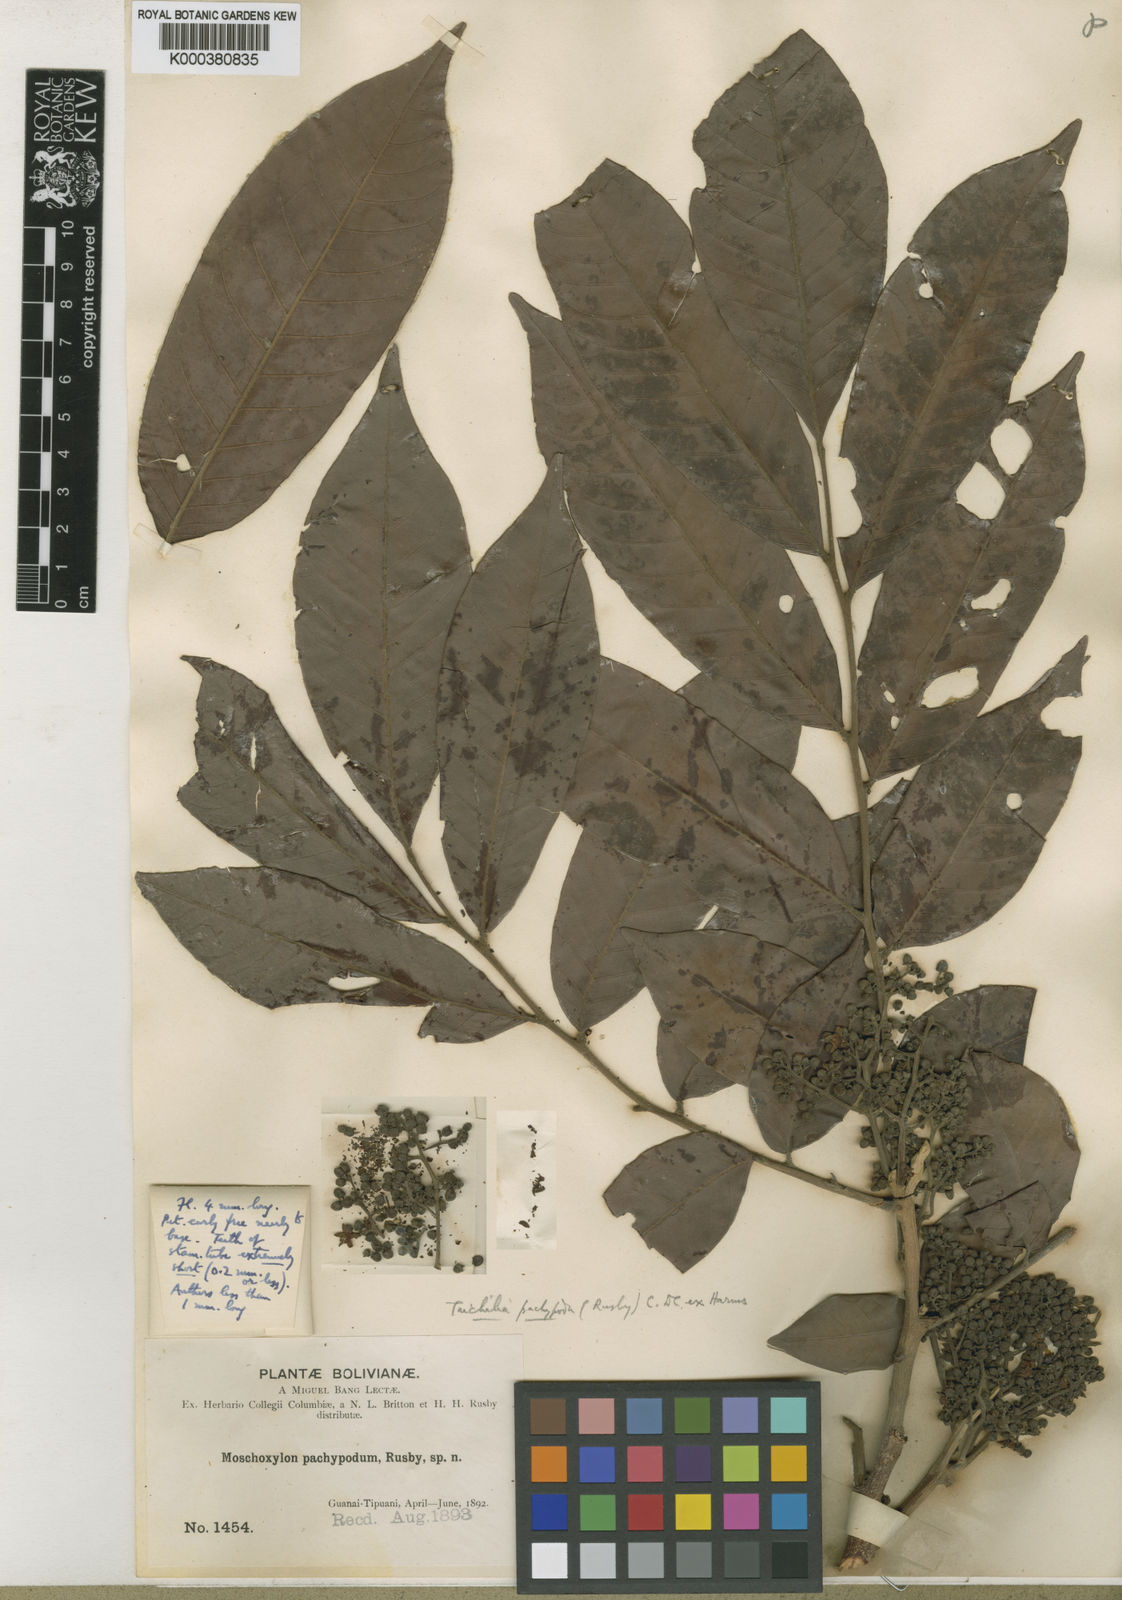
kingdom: Plantae
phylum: Tracheophyta
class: Magnoliopsida
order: Sapindales
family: Meliaceae
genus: Trichilia
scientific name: Trichilia pachypoda
